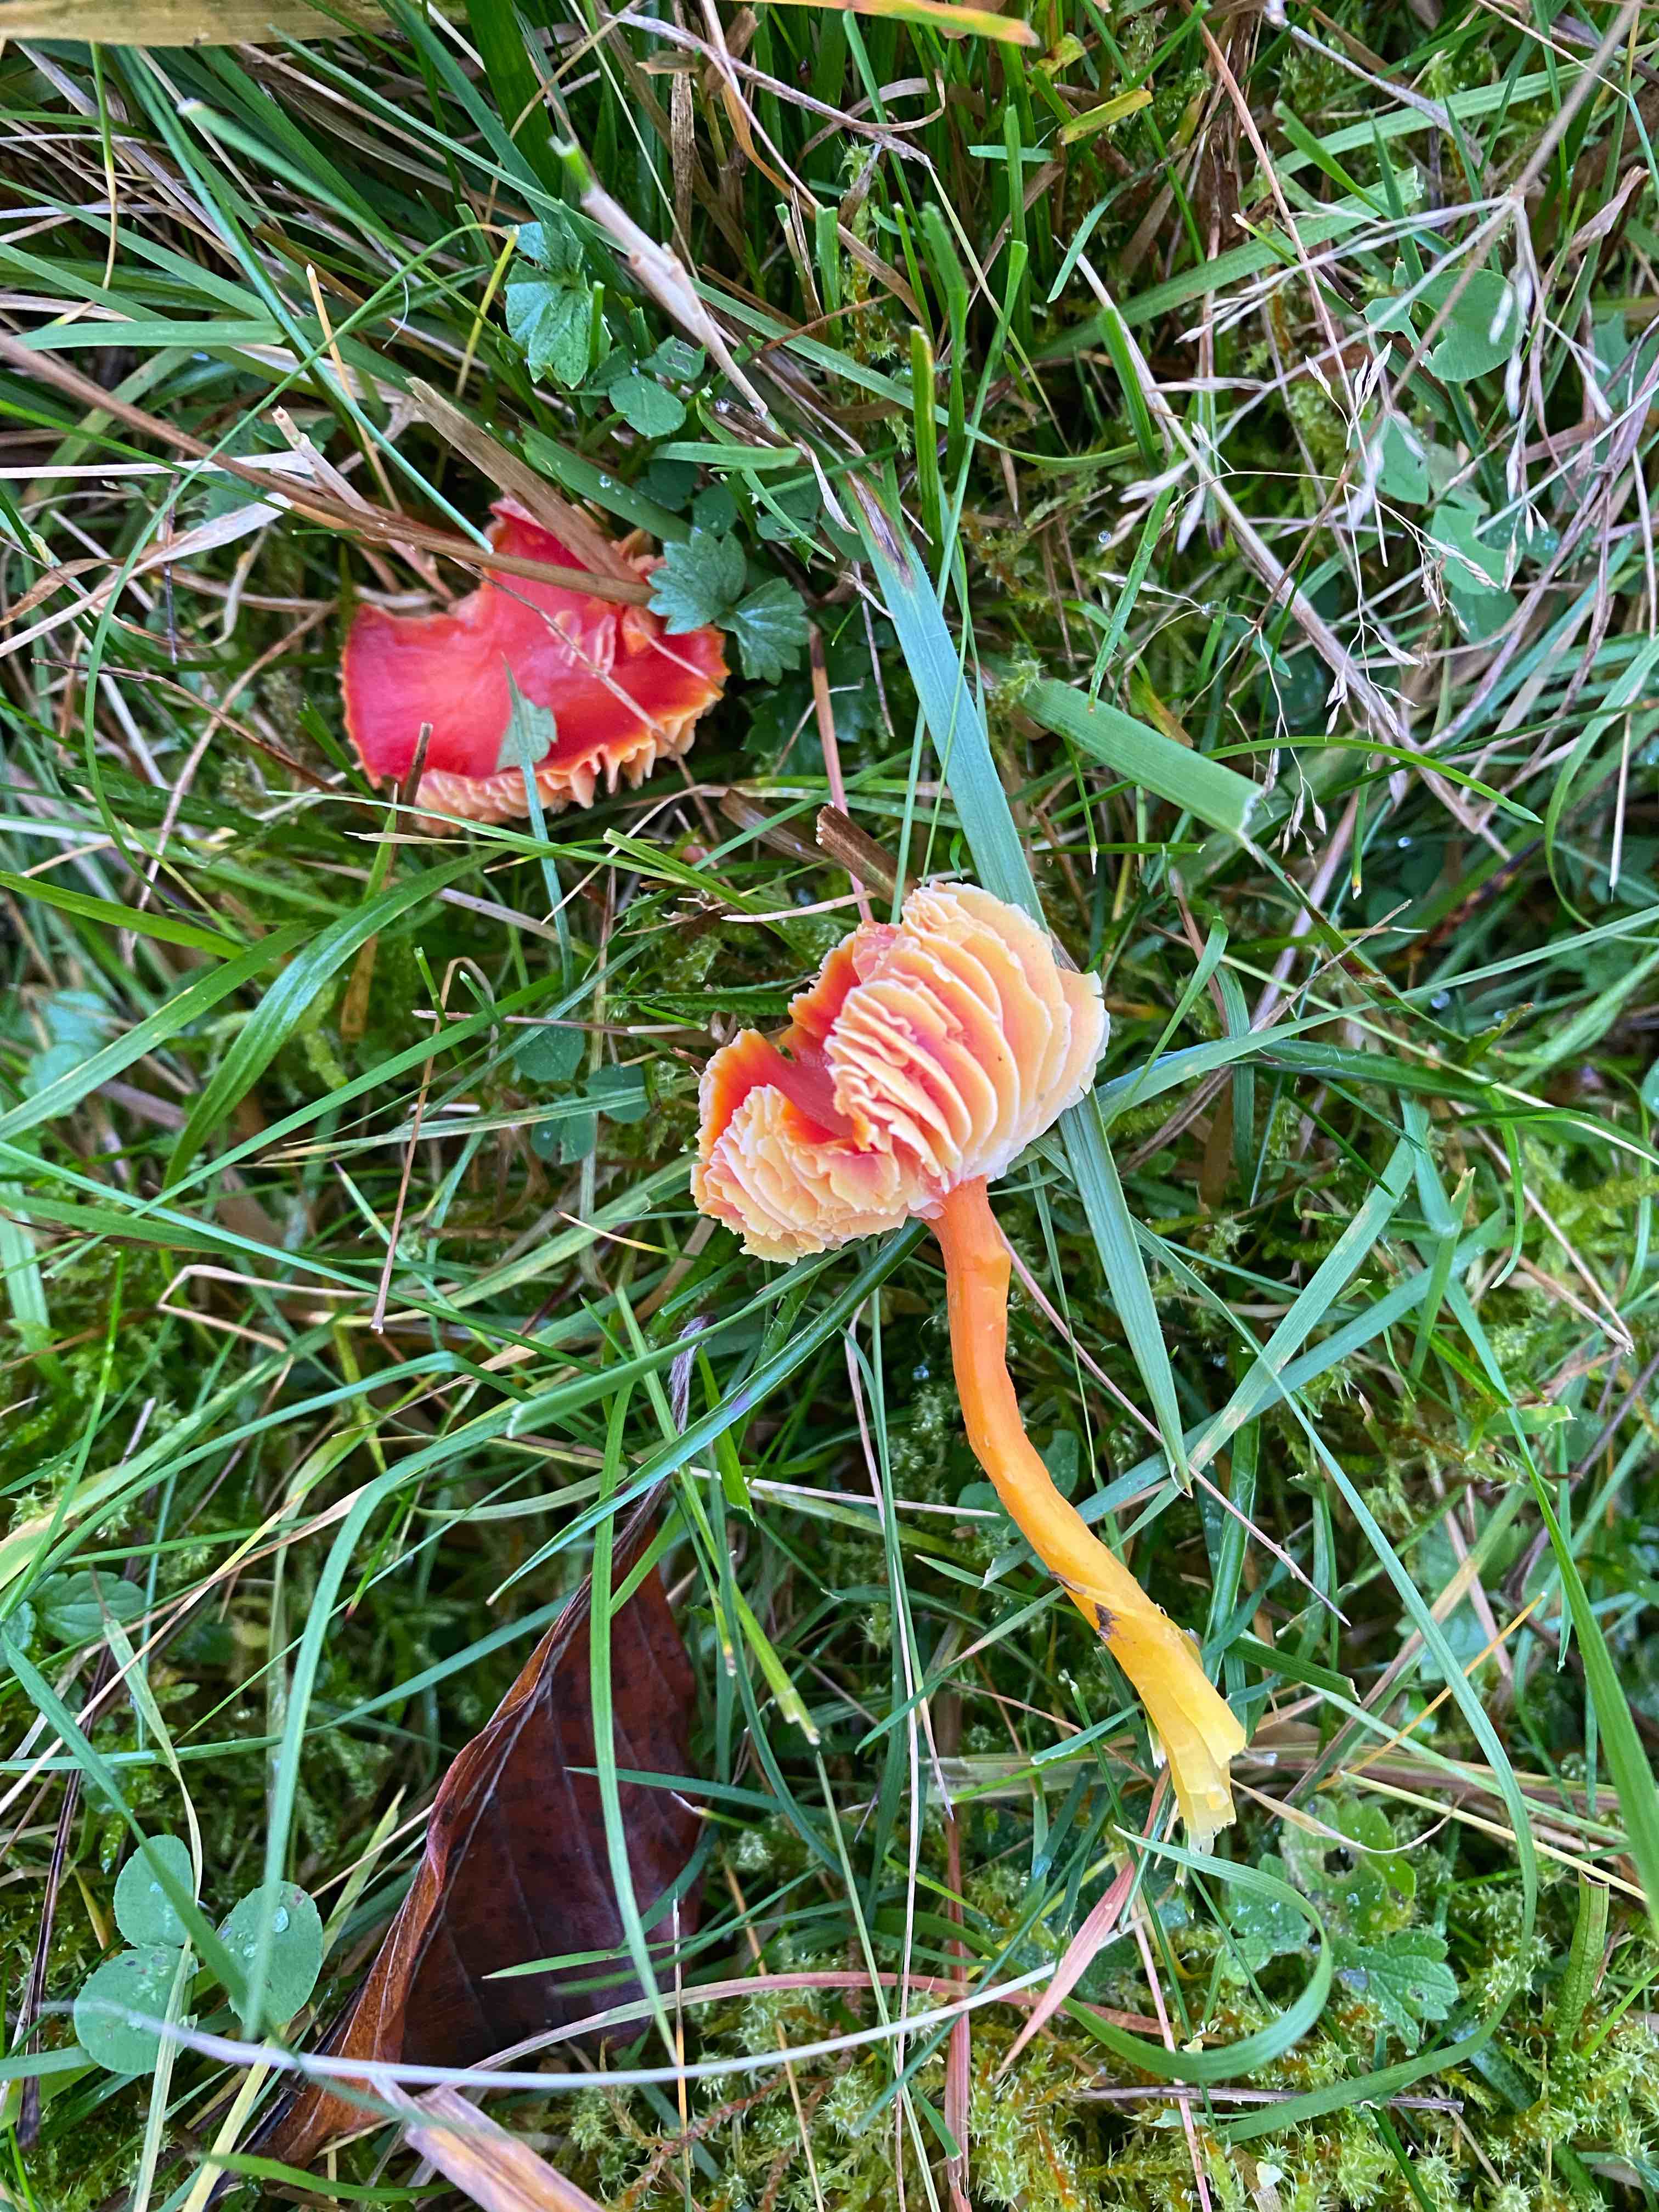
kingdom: Fungi
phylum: Basidiomycota
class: Agaricomycetes
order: Agaricales
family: Hygrophoraceae
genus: Hygrocybe
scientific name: Hygrocybe coccinea
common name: cinnober-vokshat
